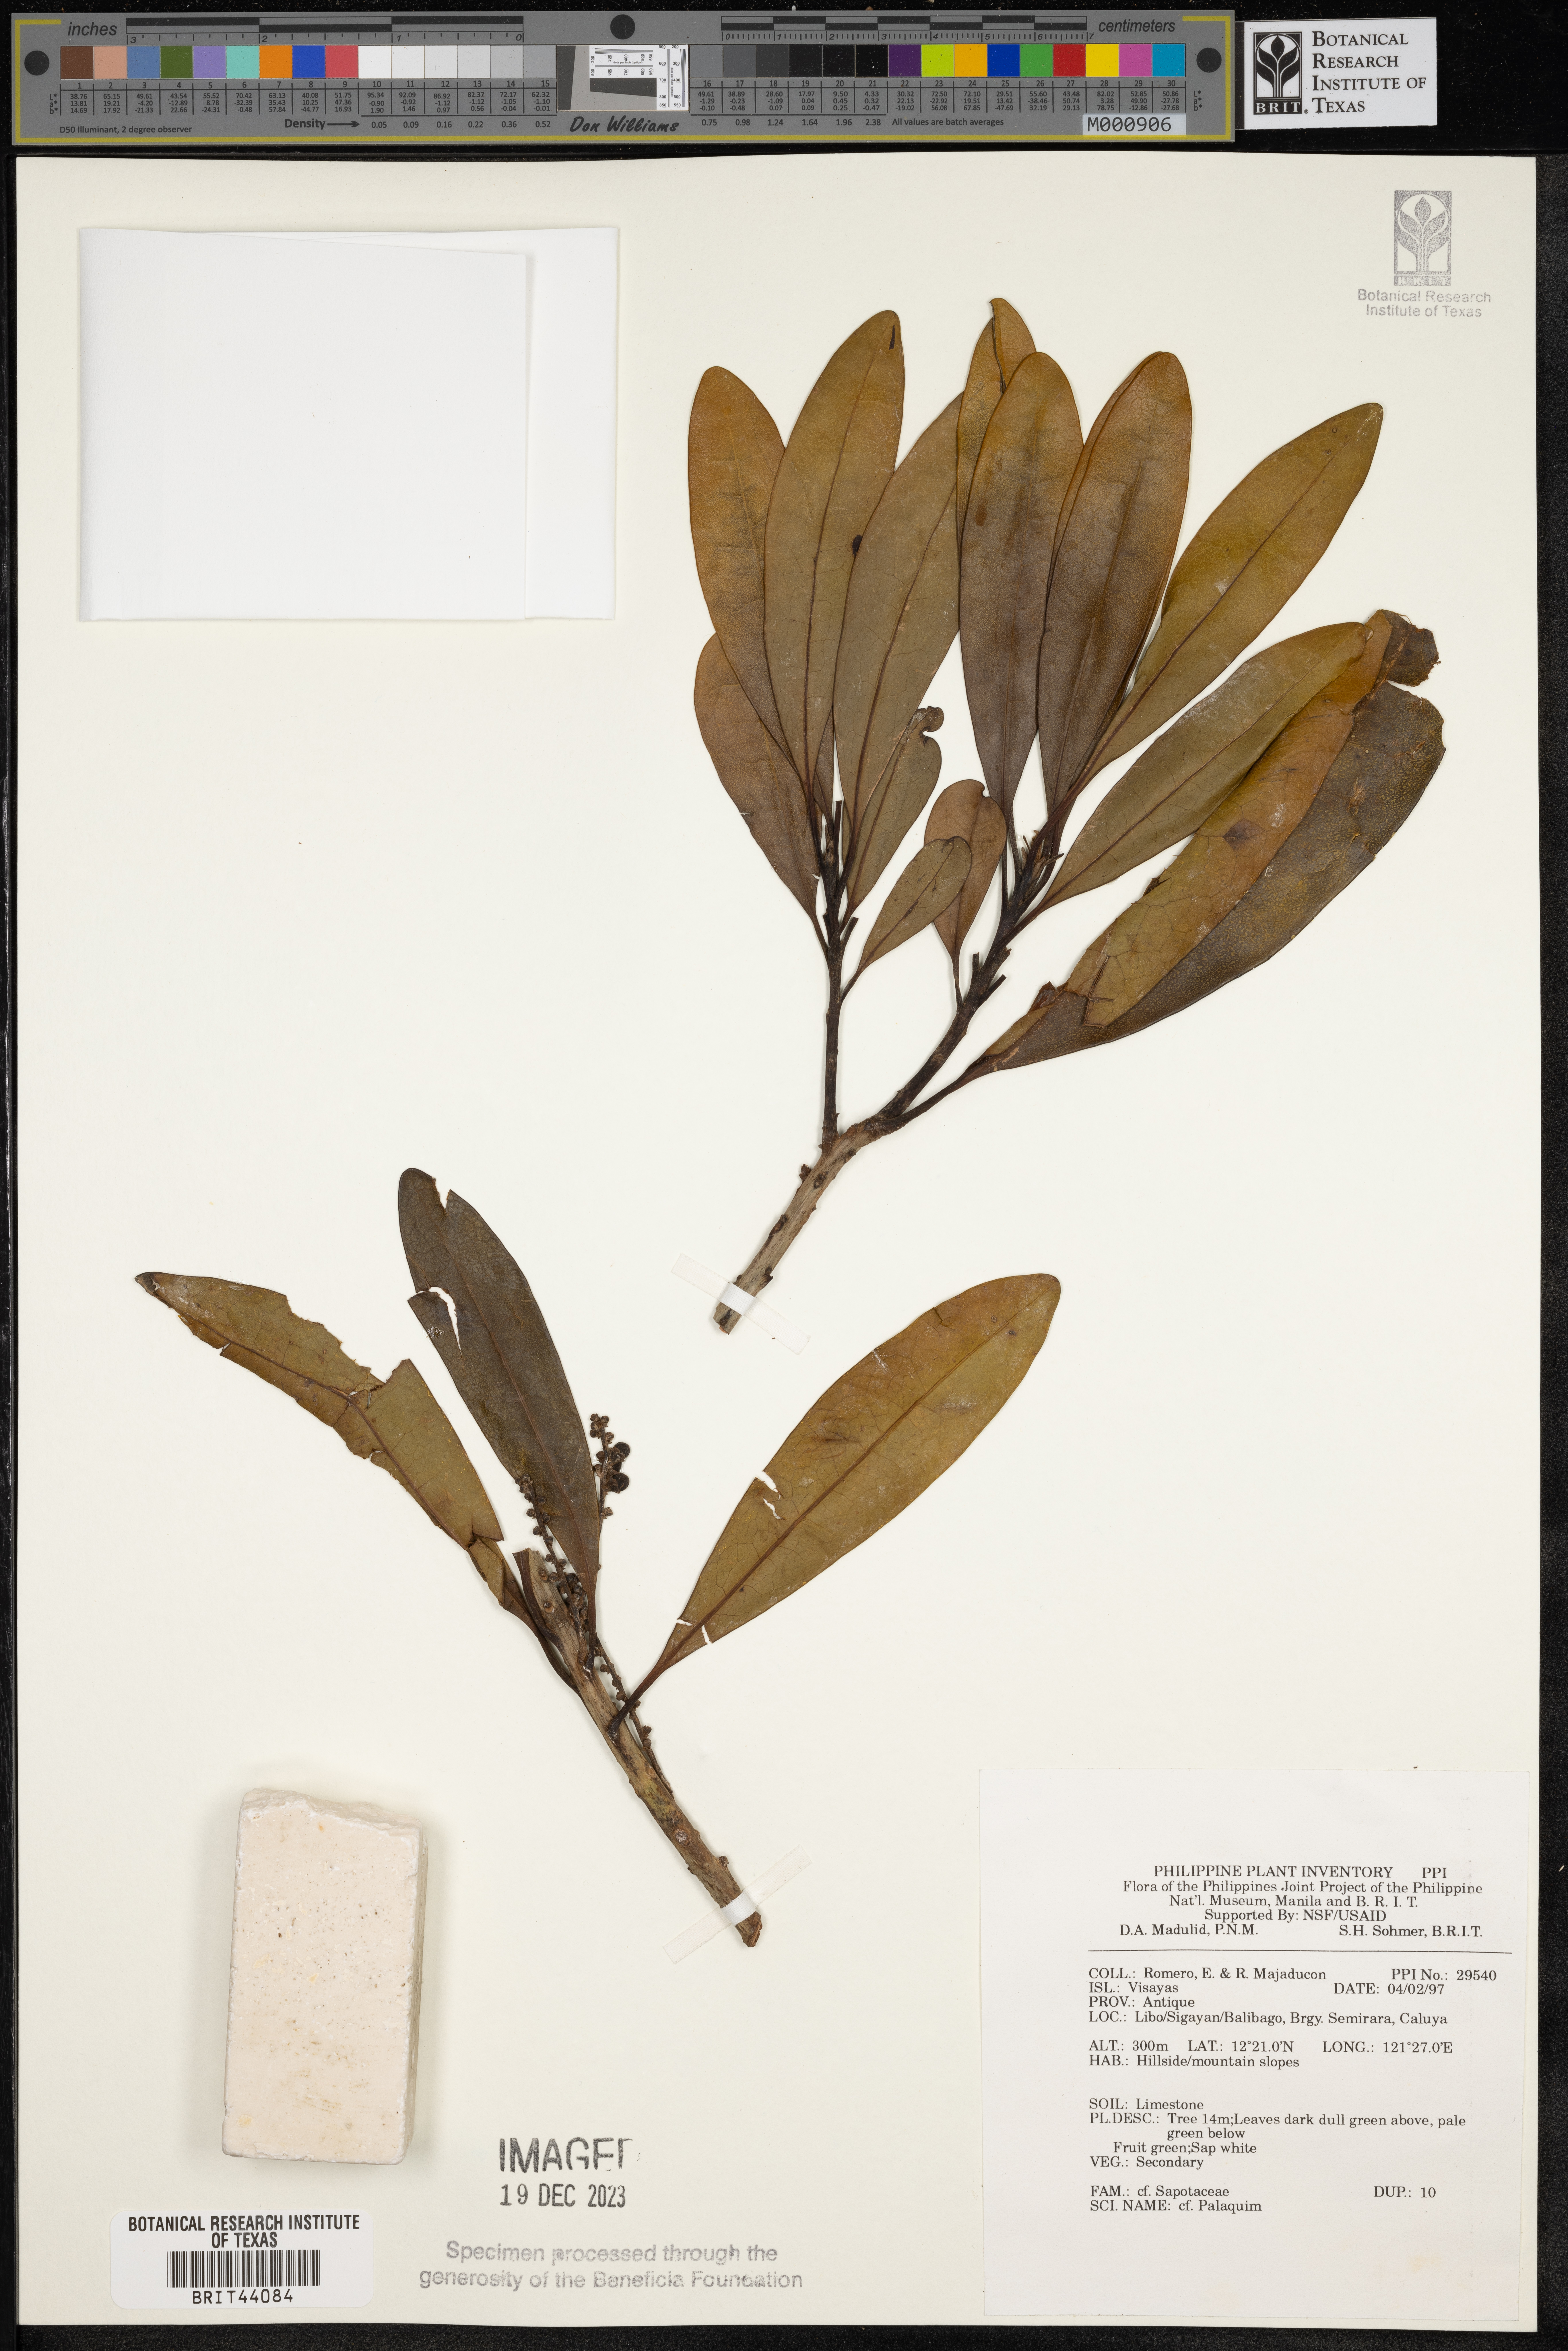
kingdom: Plantae
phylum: Tracheophyta
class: Magnoliopsida
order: Ericales
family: Sapotaceae
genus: Palaquium
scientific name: Palaquium
